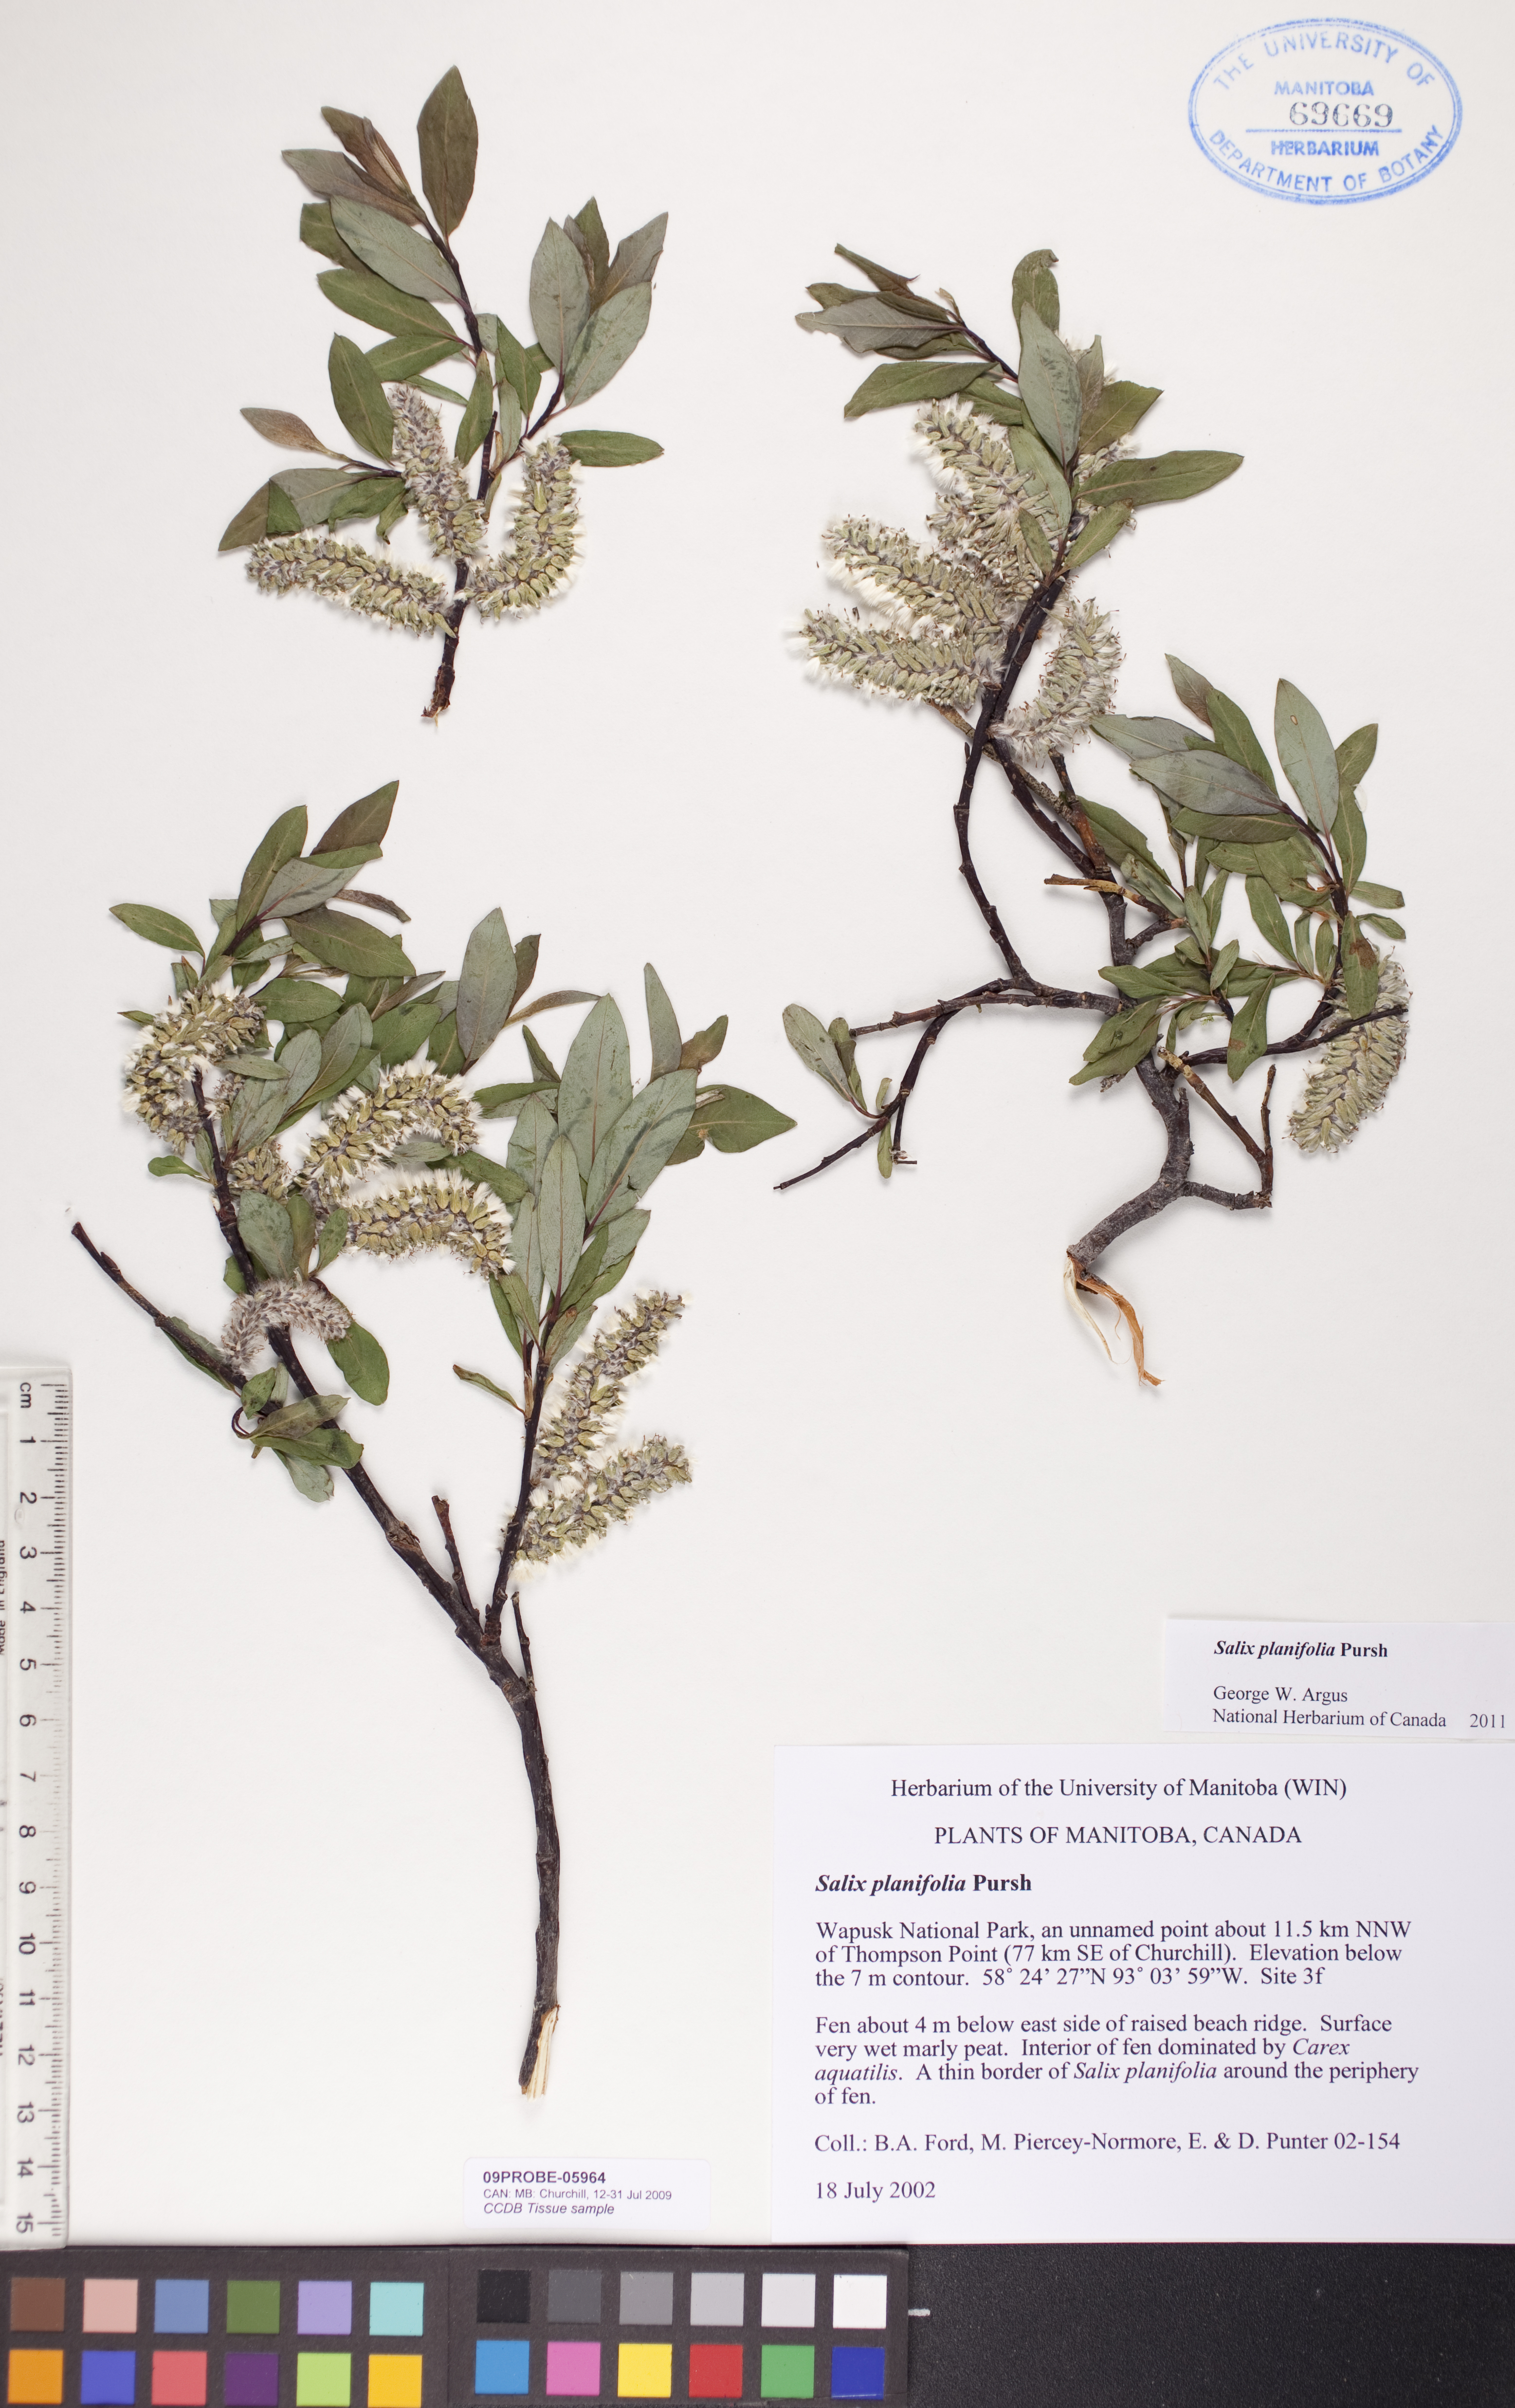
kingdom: Plantae
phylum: Tracheophyta
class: Magnoliopsida
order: Malpighiales
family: Salicaceae
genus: Salix
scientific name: Salix planifolia
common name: Mountain willow
